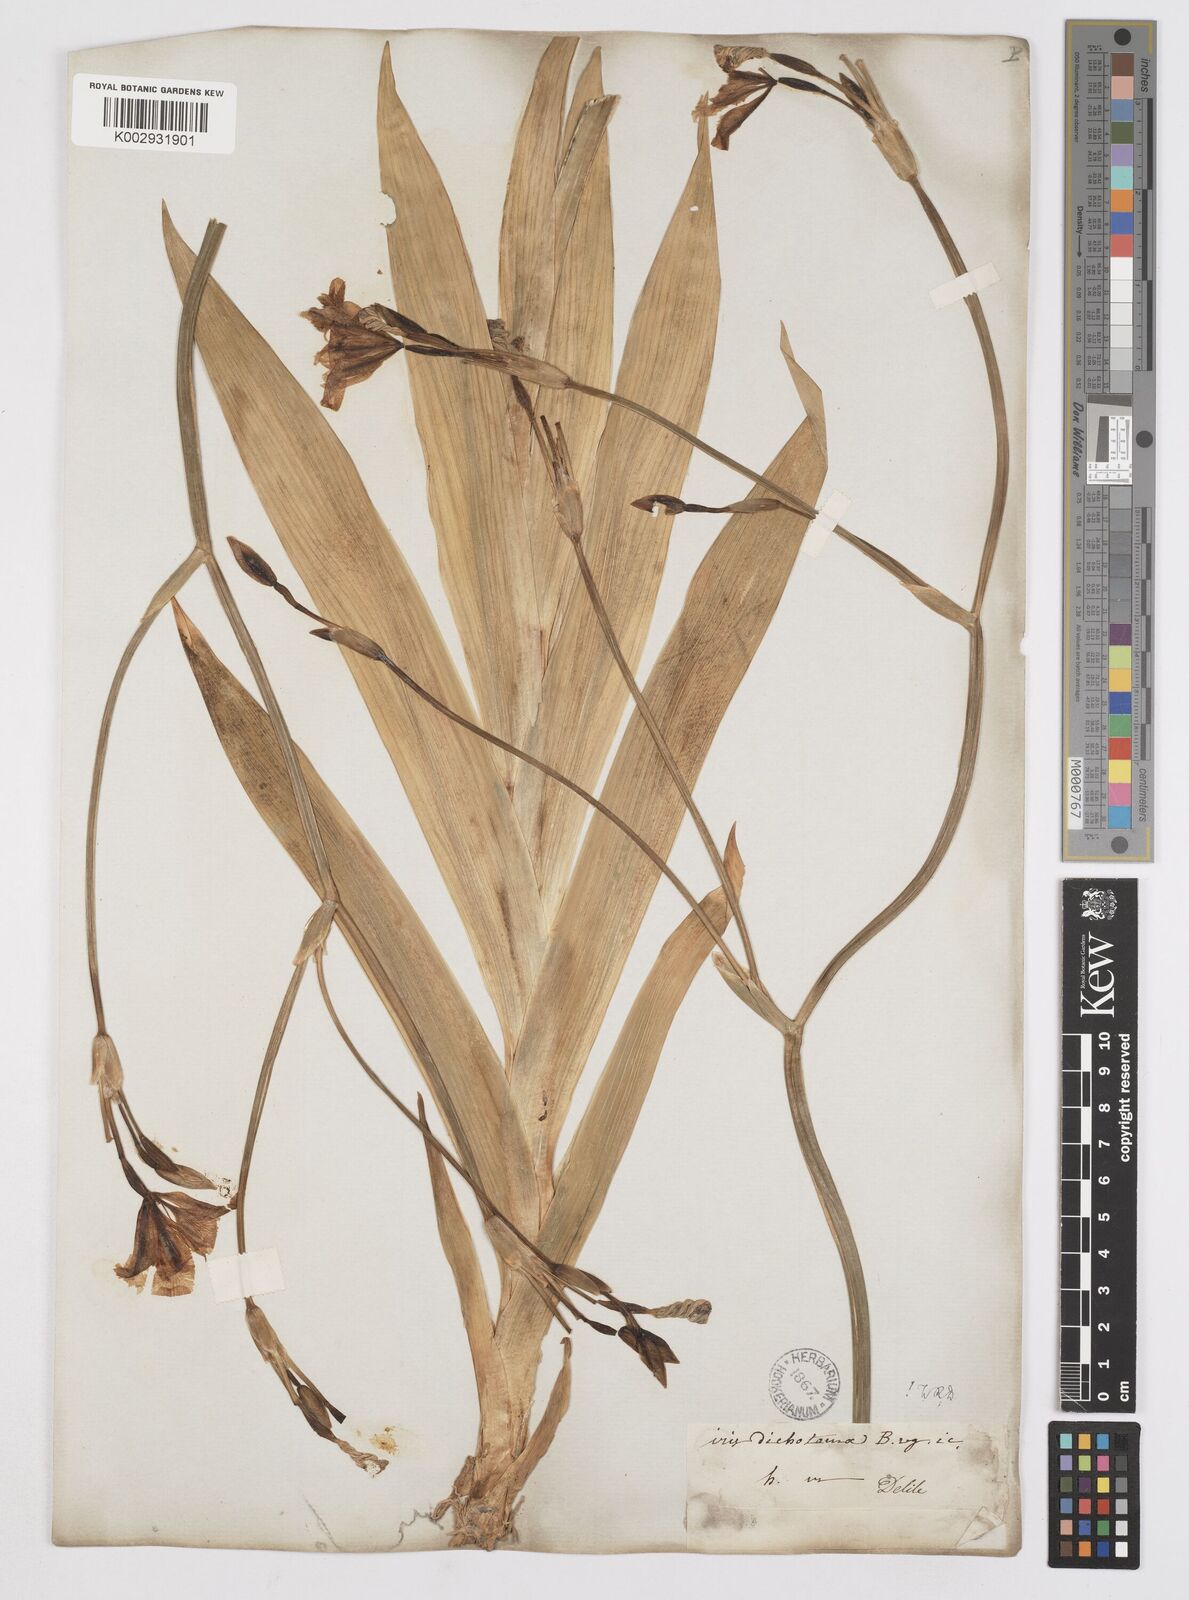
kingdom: Plantae
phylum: Tracheophyta
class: Liliopsida
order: Asparagales
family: Iridaceae
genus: Iris
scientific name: Iris dichotoma
